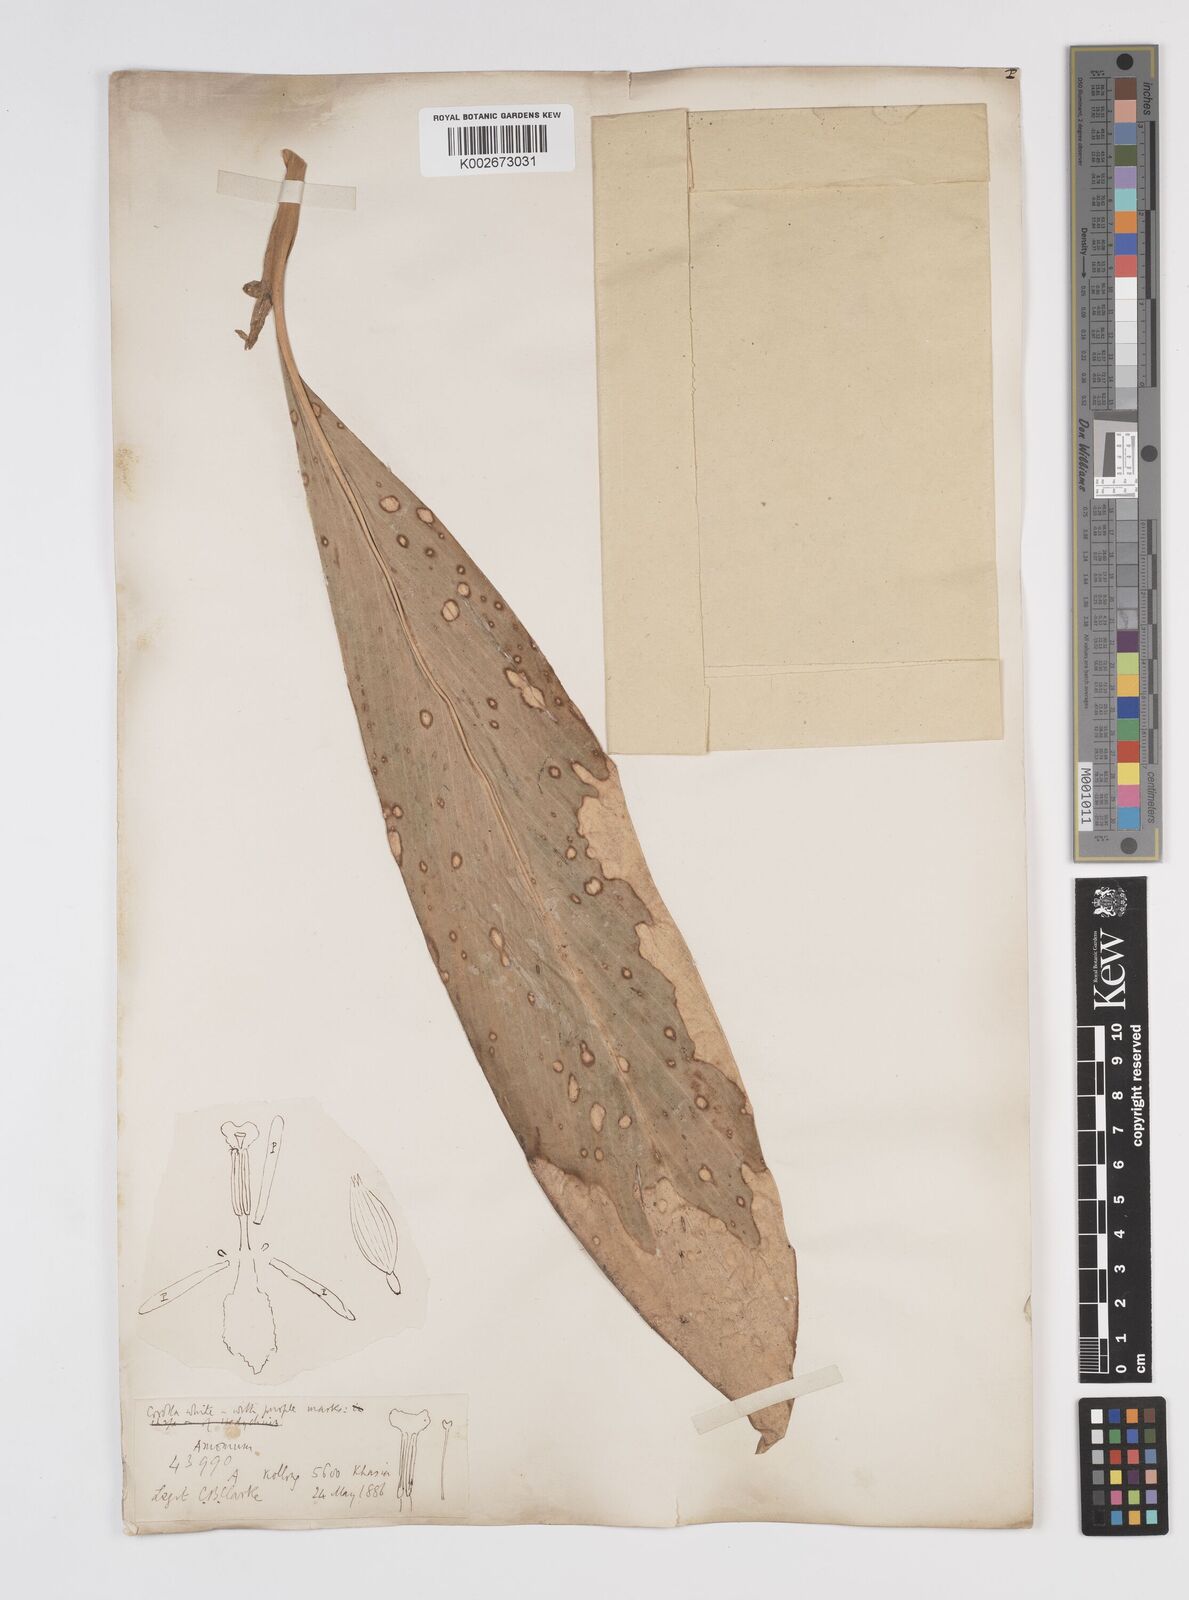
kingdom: Plantae
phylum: Tracheophyta
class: Liliopsida
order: Zingiberales
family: Zingiberaceae
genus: Amomum
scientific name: Amomum dealbatum
